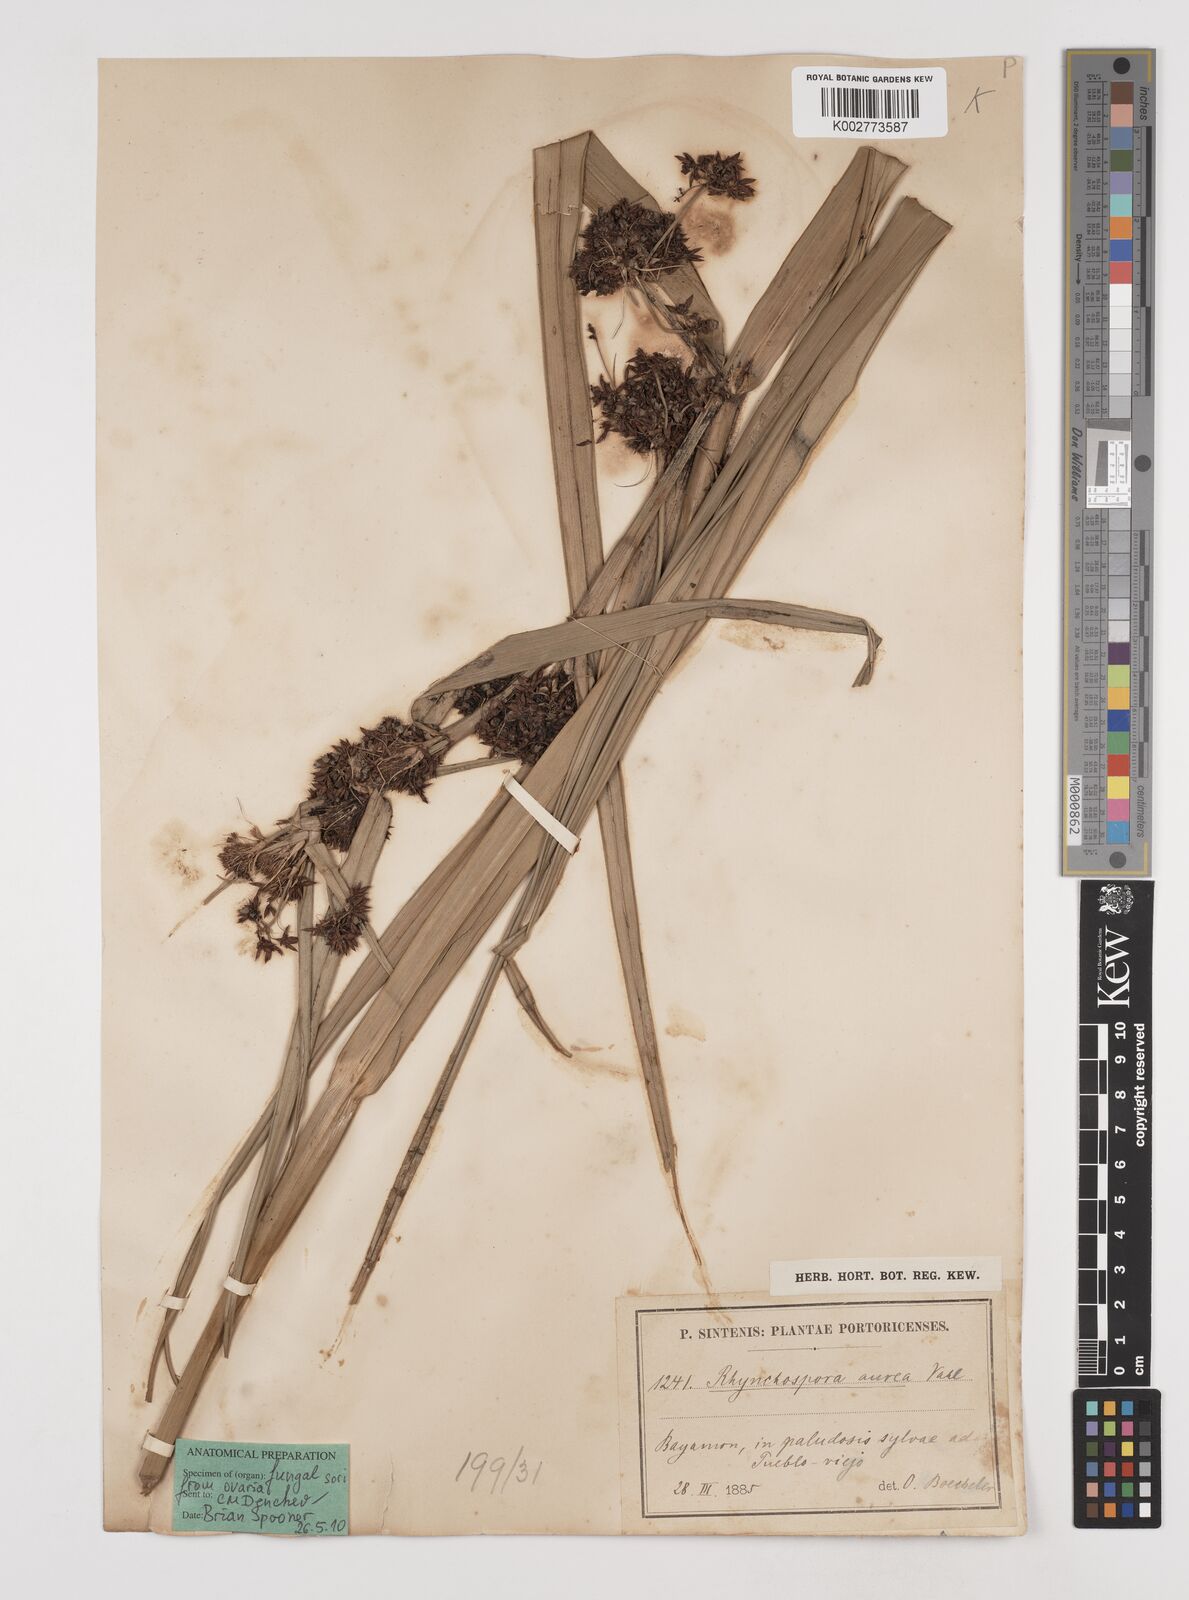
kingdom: Plantae
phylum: Tracheophyta
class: Liliopsida
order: Poales
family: Cyperaceae
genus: Rhynchospora
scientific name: Rhynchospora corymbosa
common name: Golden beak sedge
